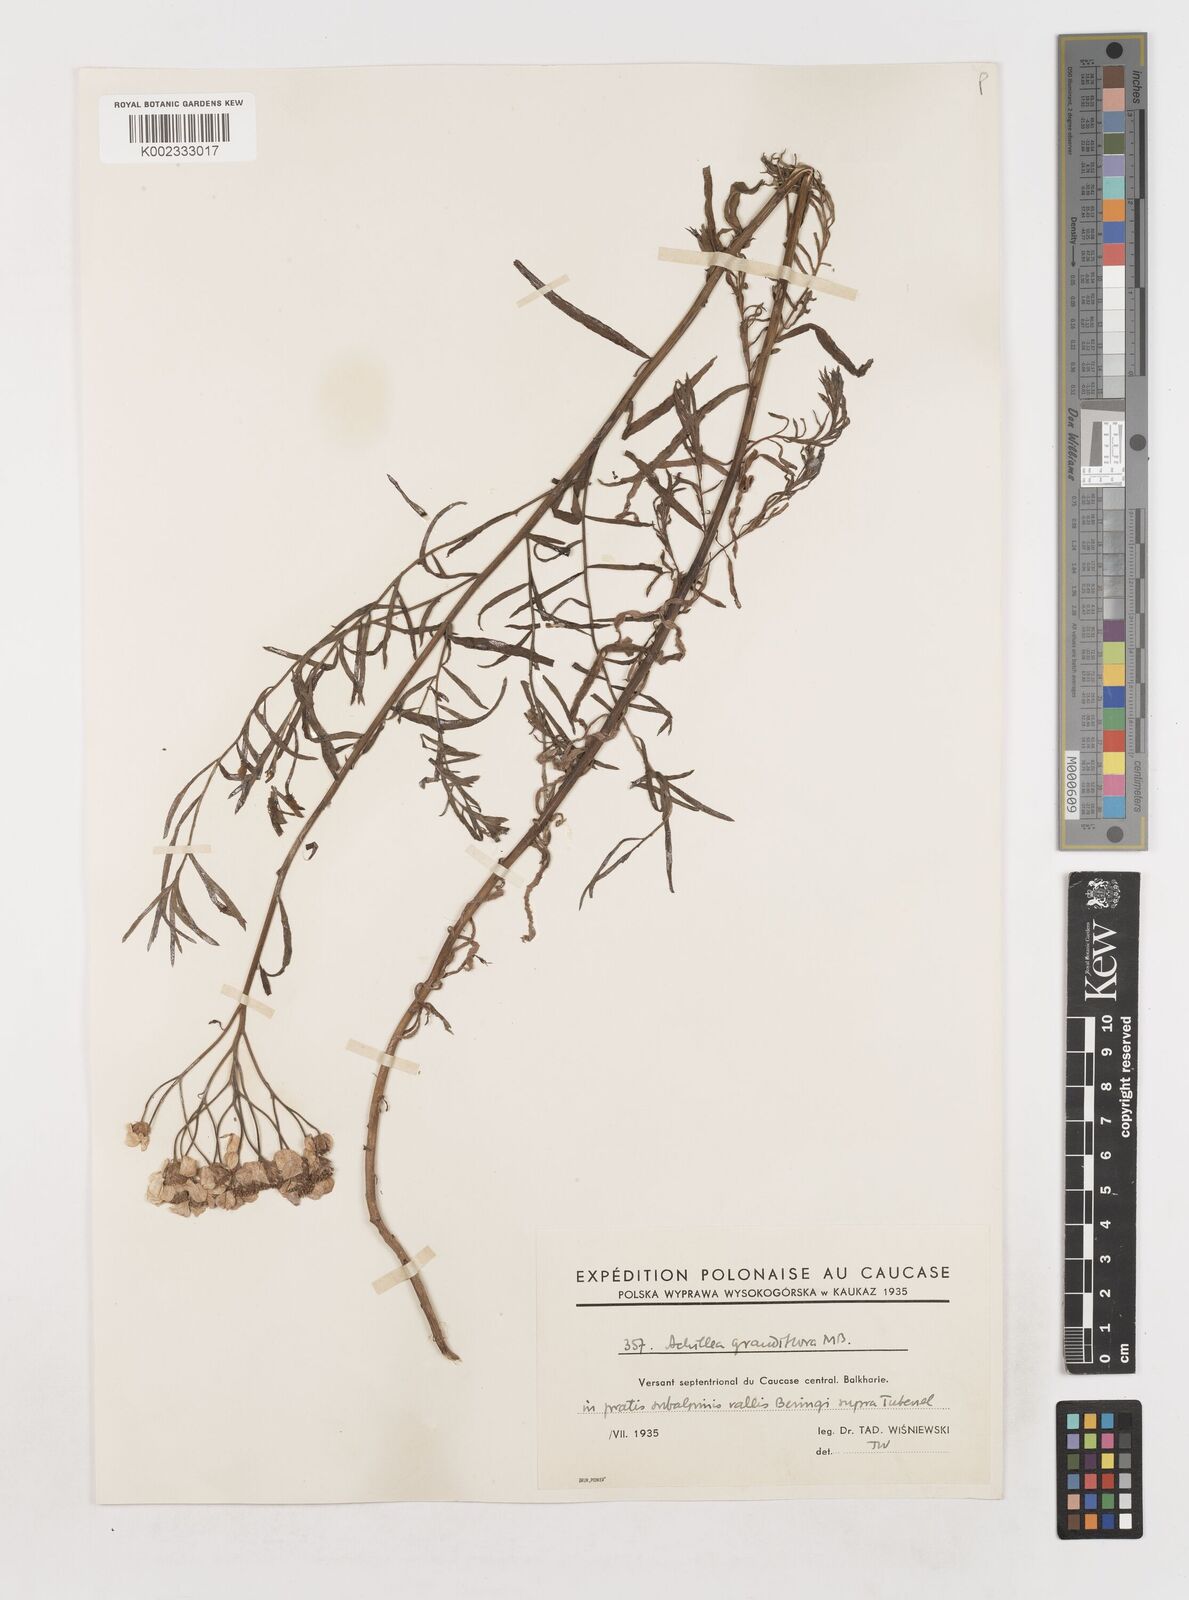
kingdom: Plantae
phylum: Tracheophyta
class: Magnoliopsida
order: Asterales
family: Asteraceae
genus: Achillea
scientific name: Achillea ptarmicifolia
